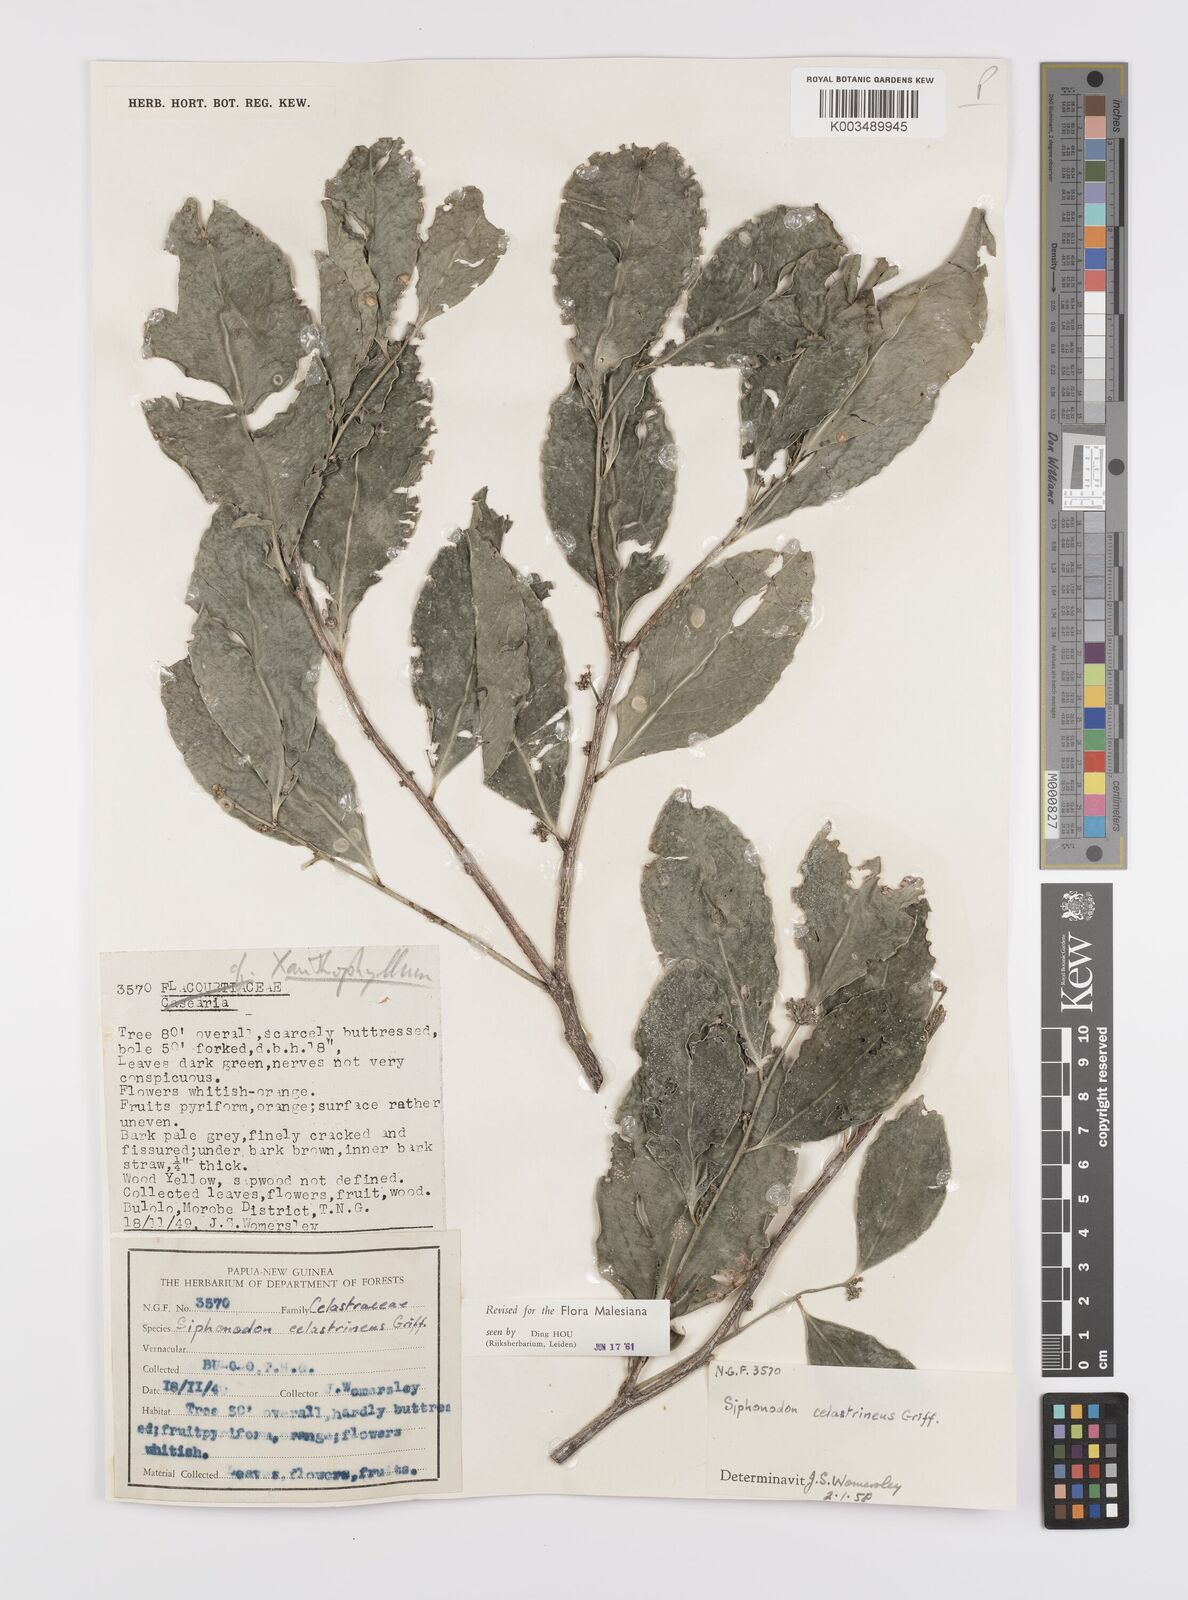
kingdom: Plantae
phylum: Tracheophyta
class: Magnoliopsida
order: Celastrales
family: Celastraceae
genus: Siphonodon
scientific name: Siphonodon celastrineus
